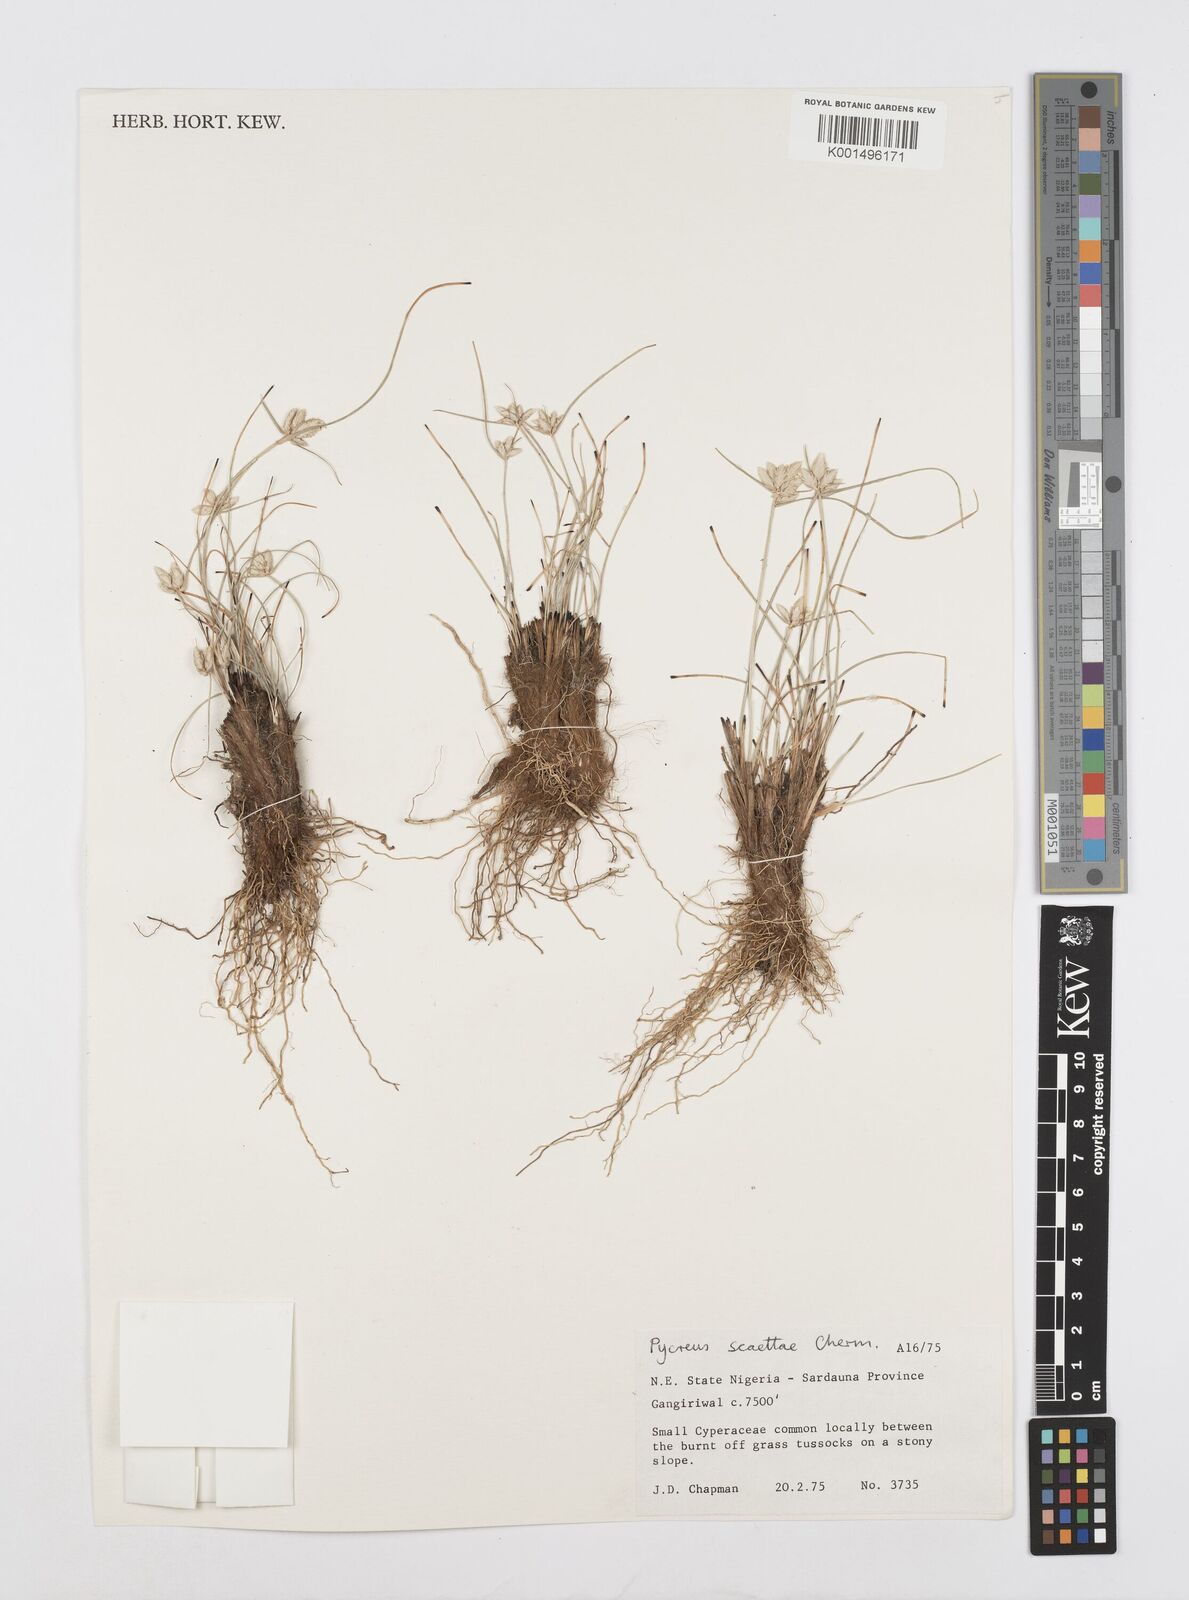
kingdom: Plantae
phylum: Tracheophyta
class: Liliopsida
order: Poales
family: Cyperaceae
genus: Cyperus
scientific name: Cyperus scaettae
